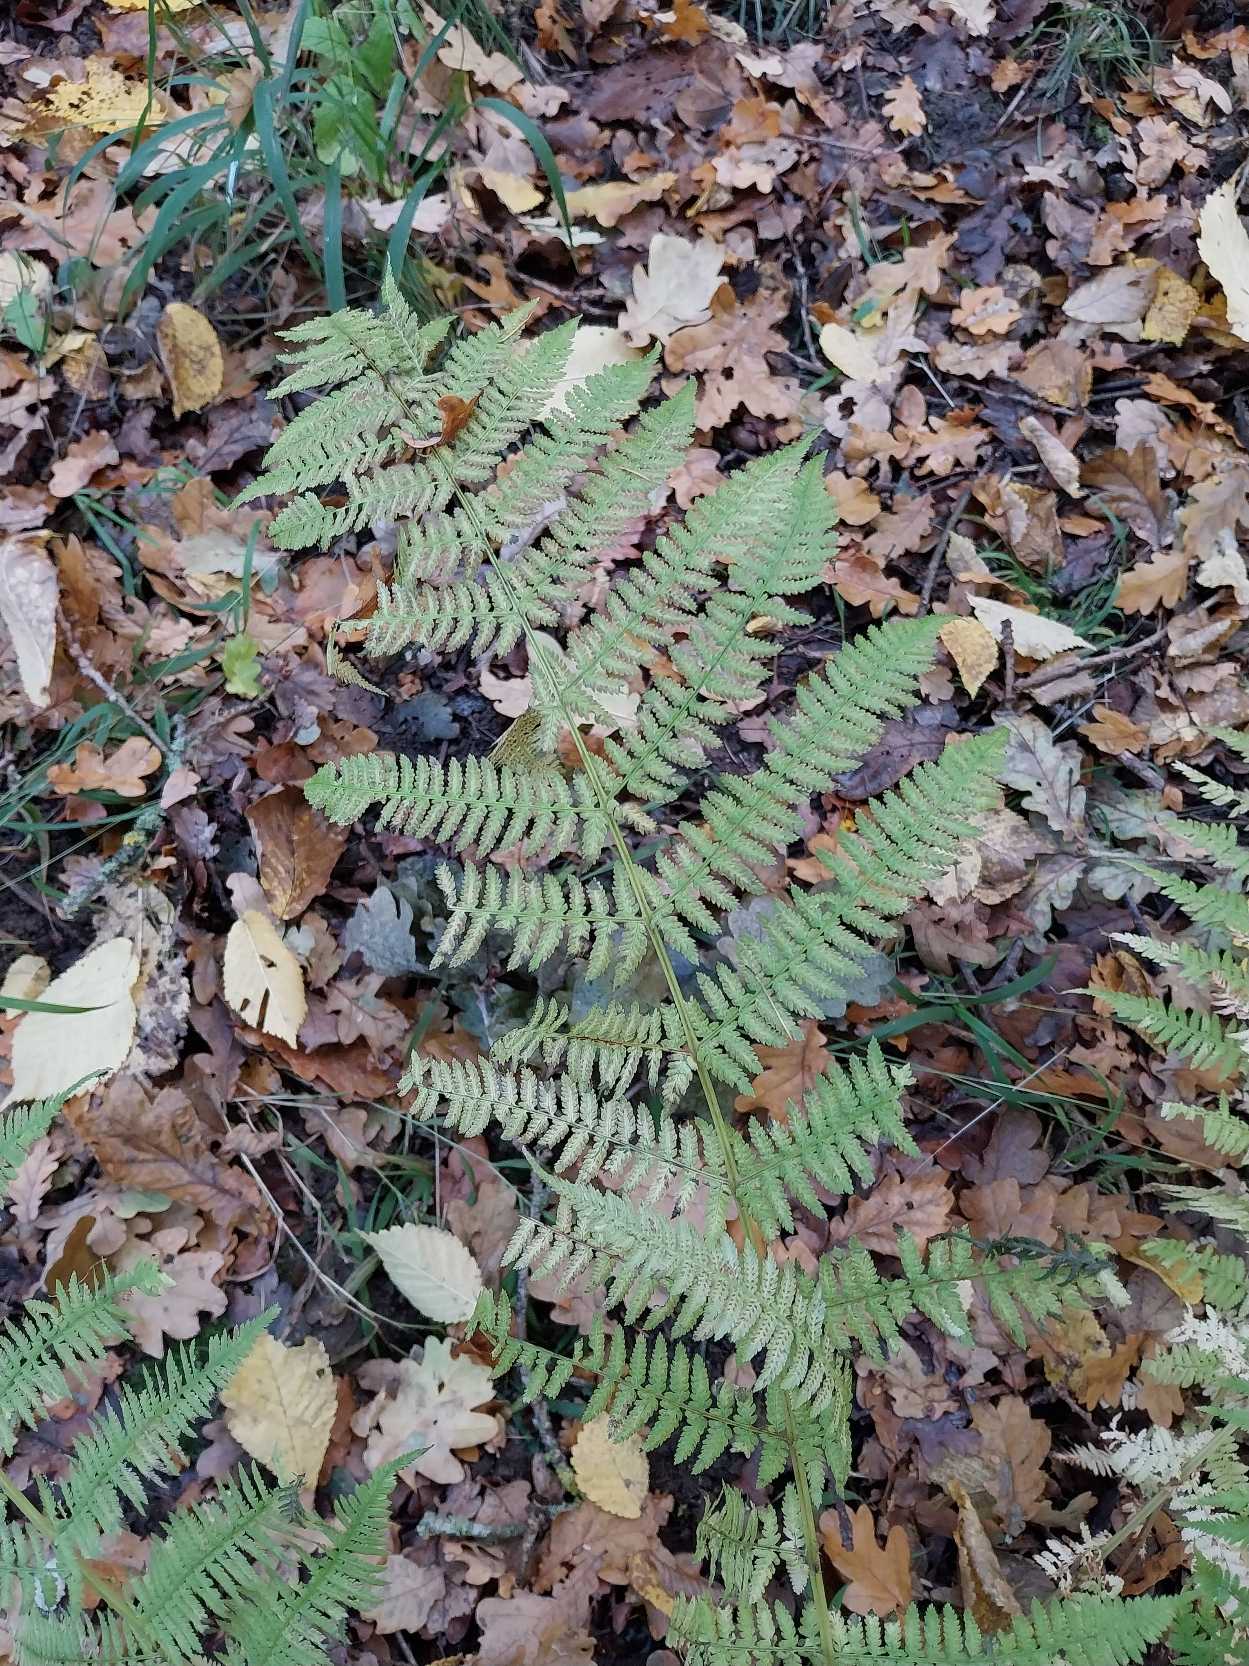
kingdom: Plantae
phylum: Tracheophyta
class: Polypodiopsida
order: Polypodiales
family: Athyriaceae
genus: Athyrium
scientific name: Athyrium filix-femina
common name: Fjerbregne
